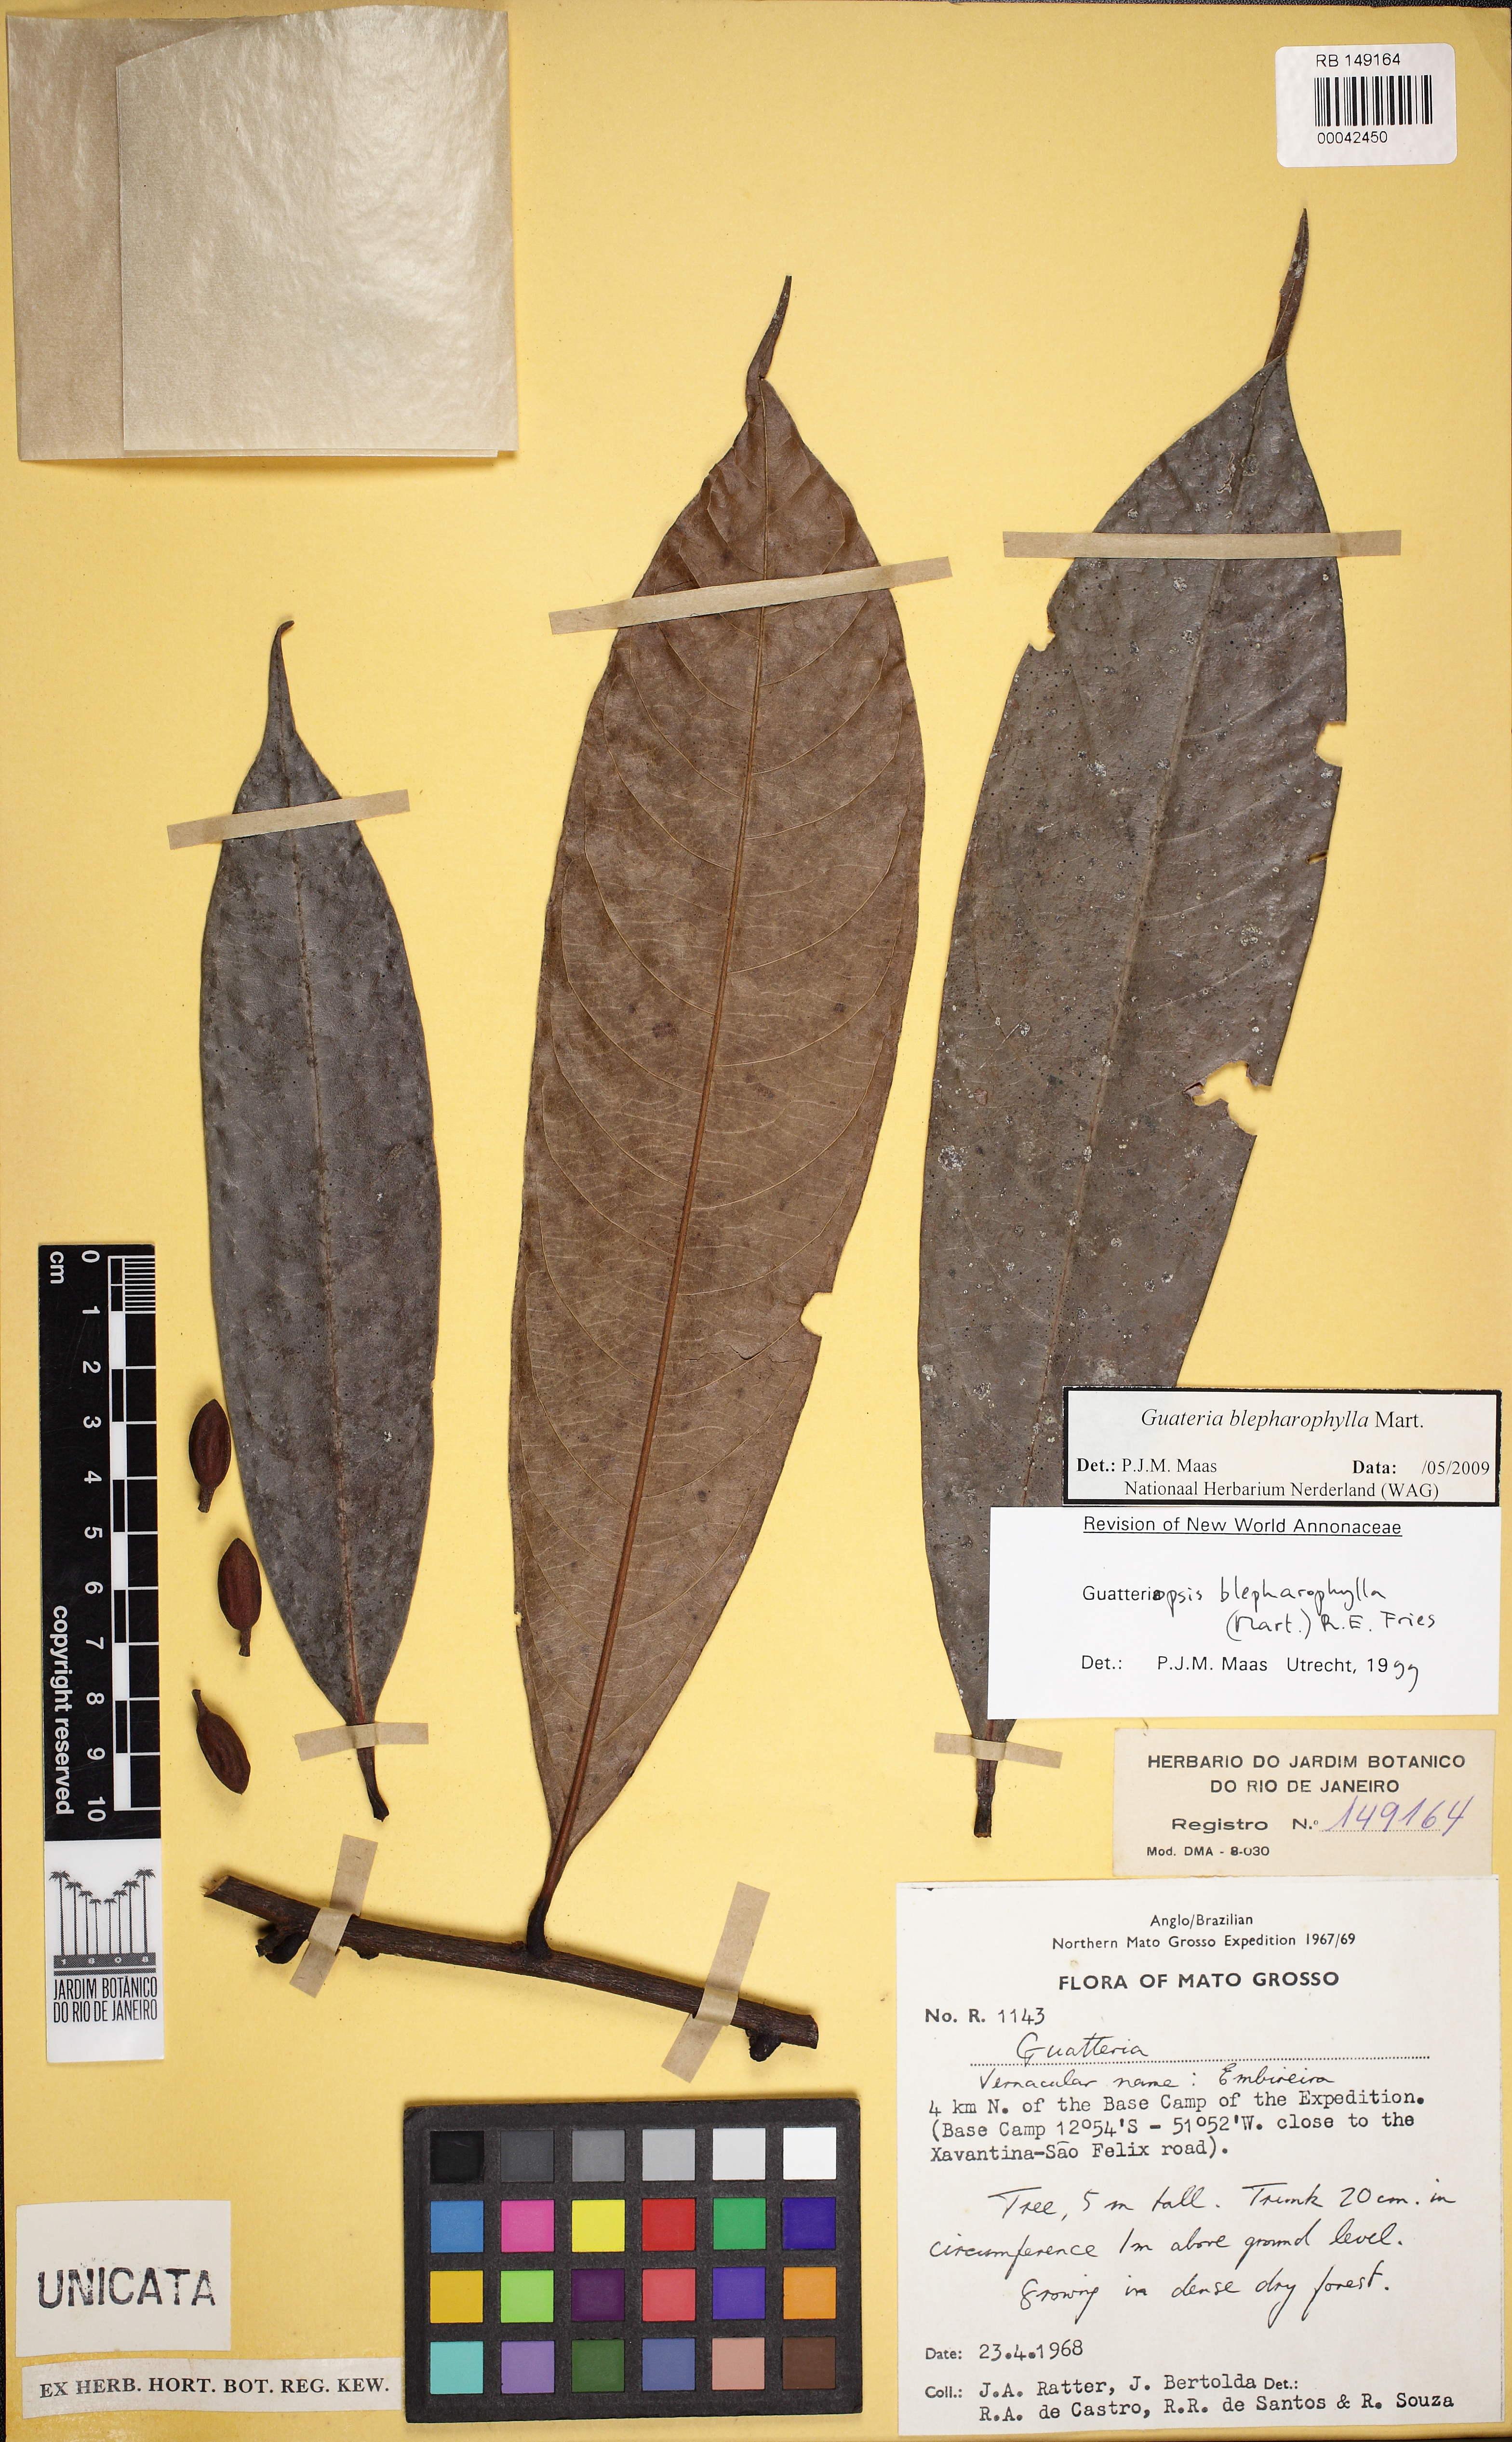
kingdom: Plantae
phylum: Tracheophyta
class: Magnoliopsida
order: Magnoliales
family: Annonaceae
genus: Guatteria
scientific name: Guatteria blepharophylla
